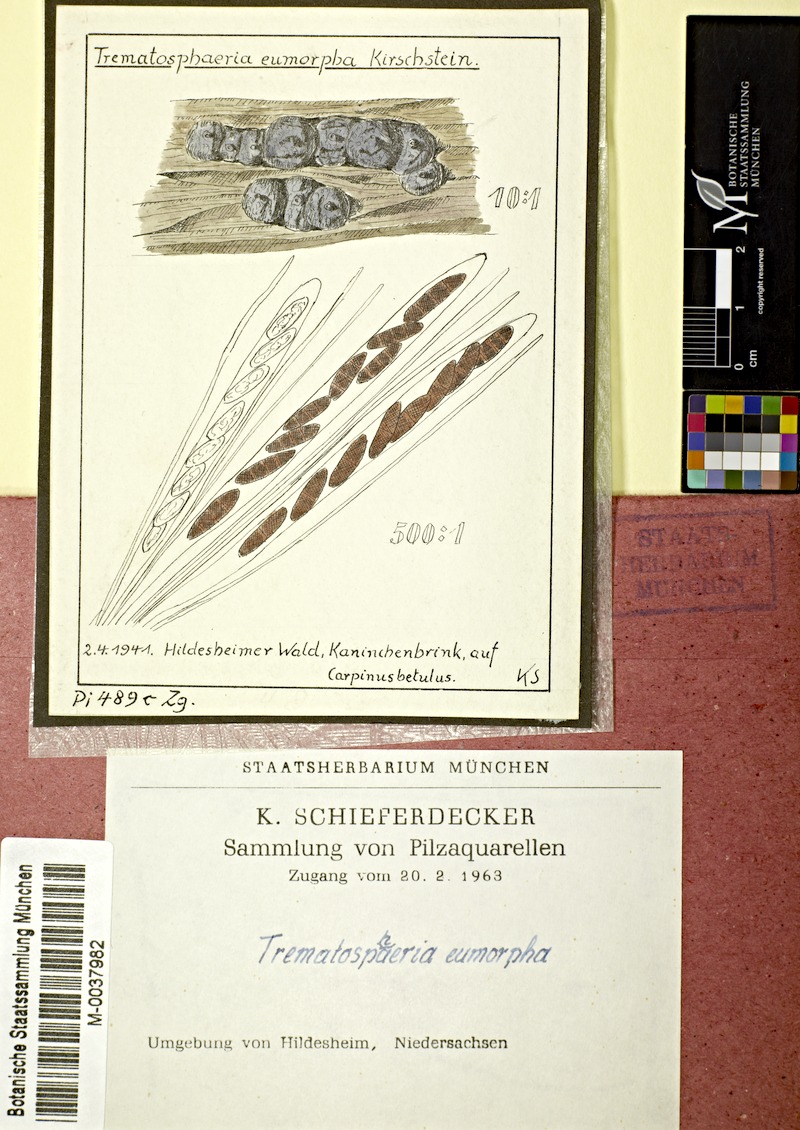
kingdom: Plantae
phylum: Tracheophyta
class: Magnoliopsida
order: Fagales
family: Betulaceae
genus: Carpinus
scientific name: Carpinus betulus
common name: Hornbeam
